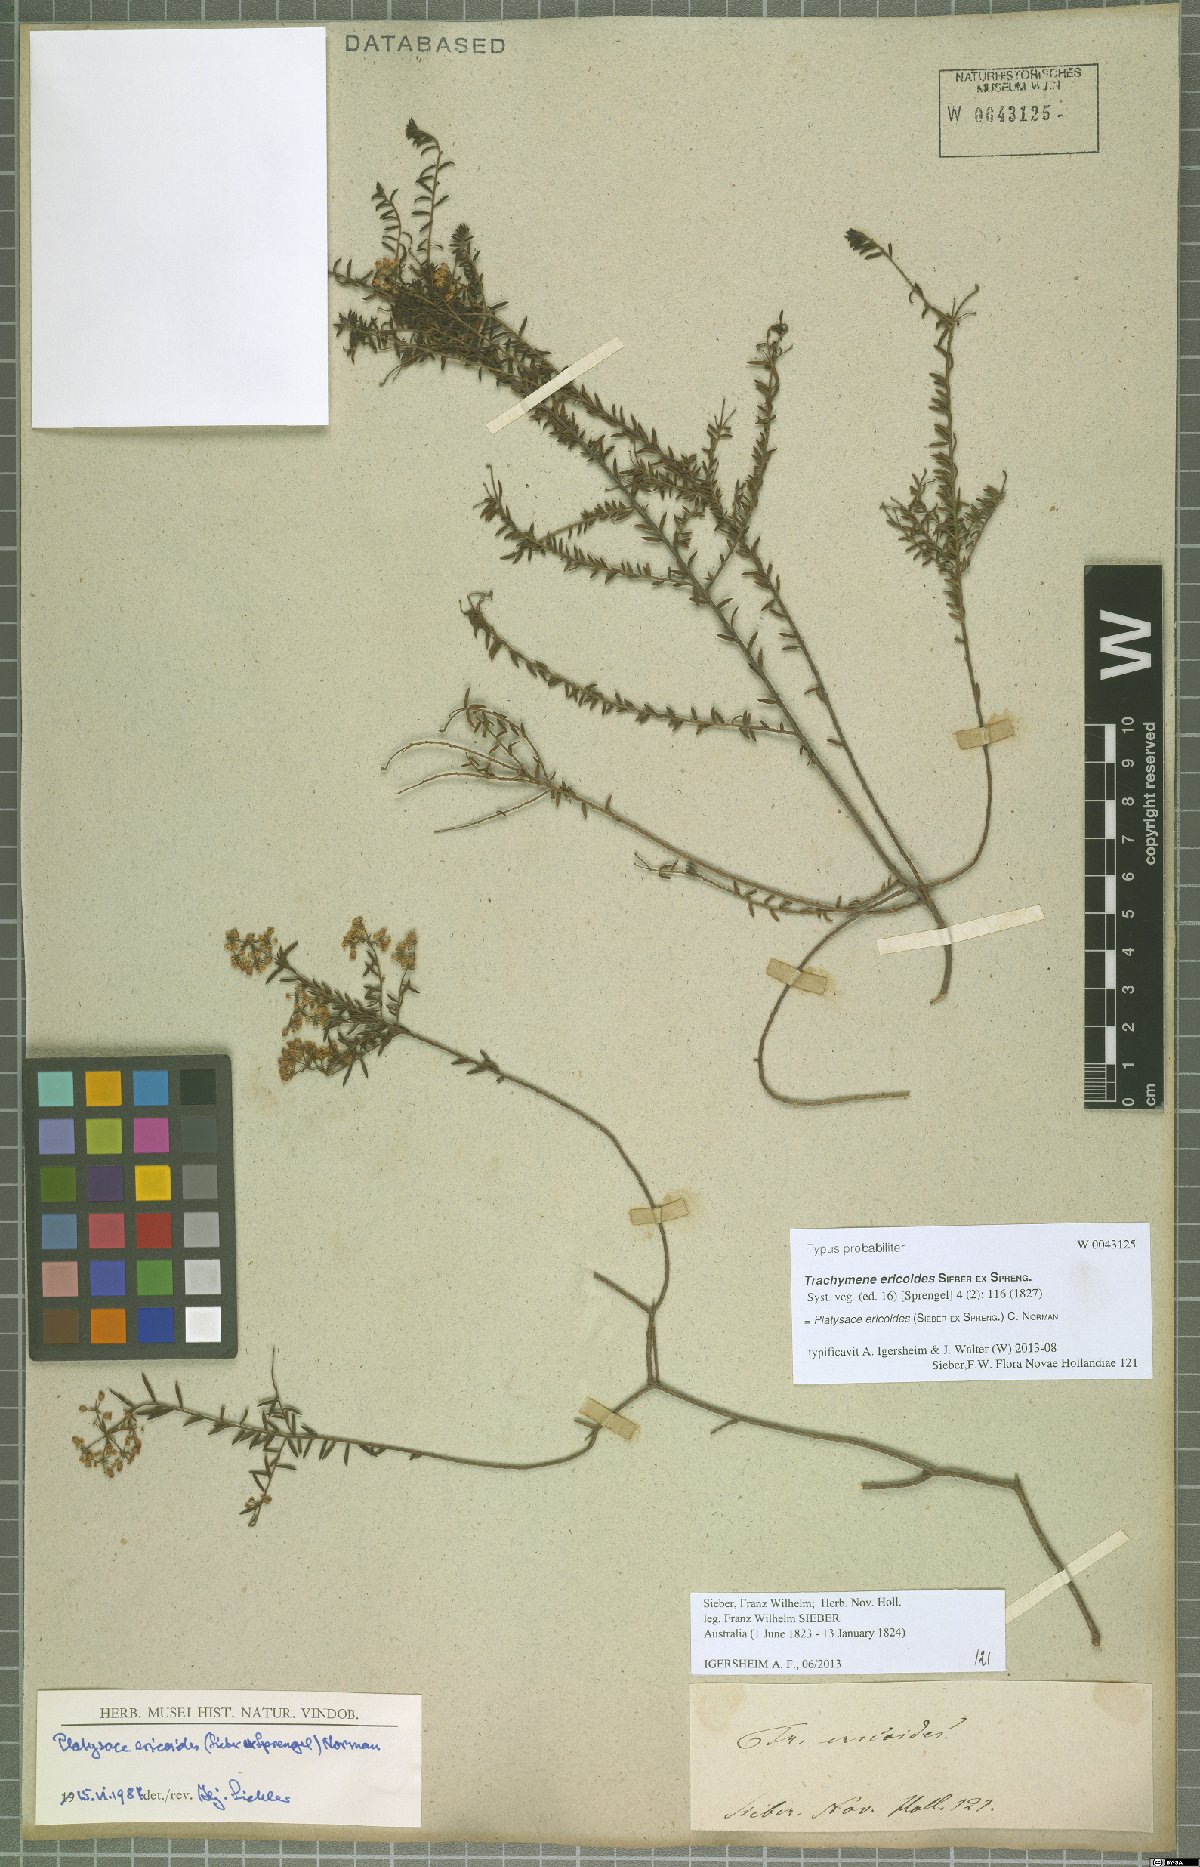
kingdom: Plantae
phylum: Tracheophyta
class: Magnoliopsida
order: Apiales
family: Apiaceae
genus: Platysace
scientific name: Platysace ericoides
